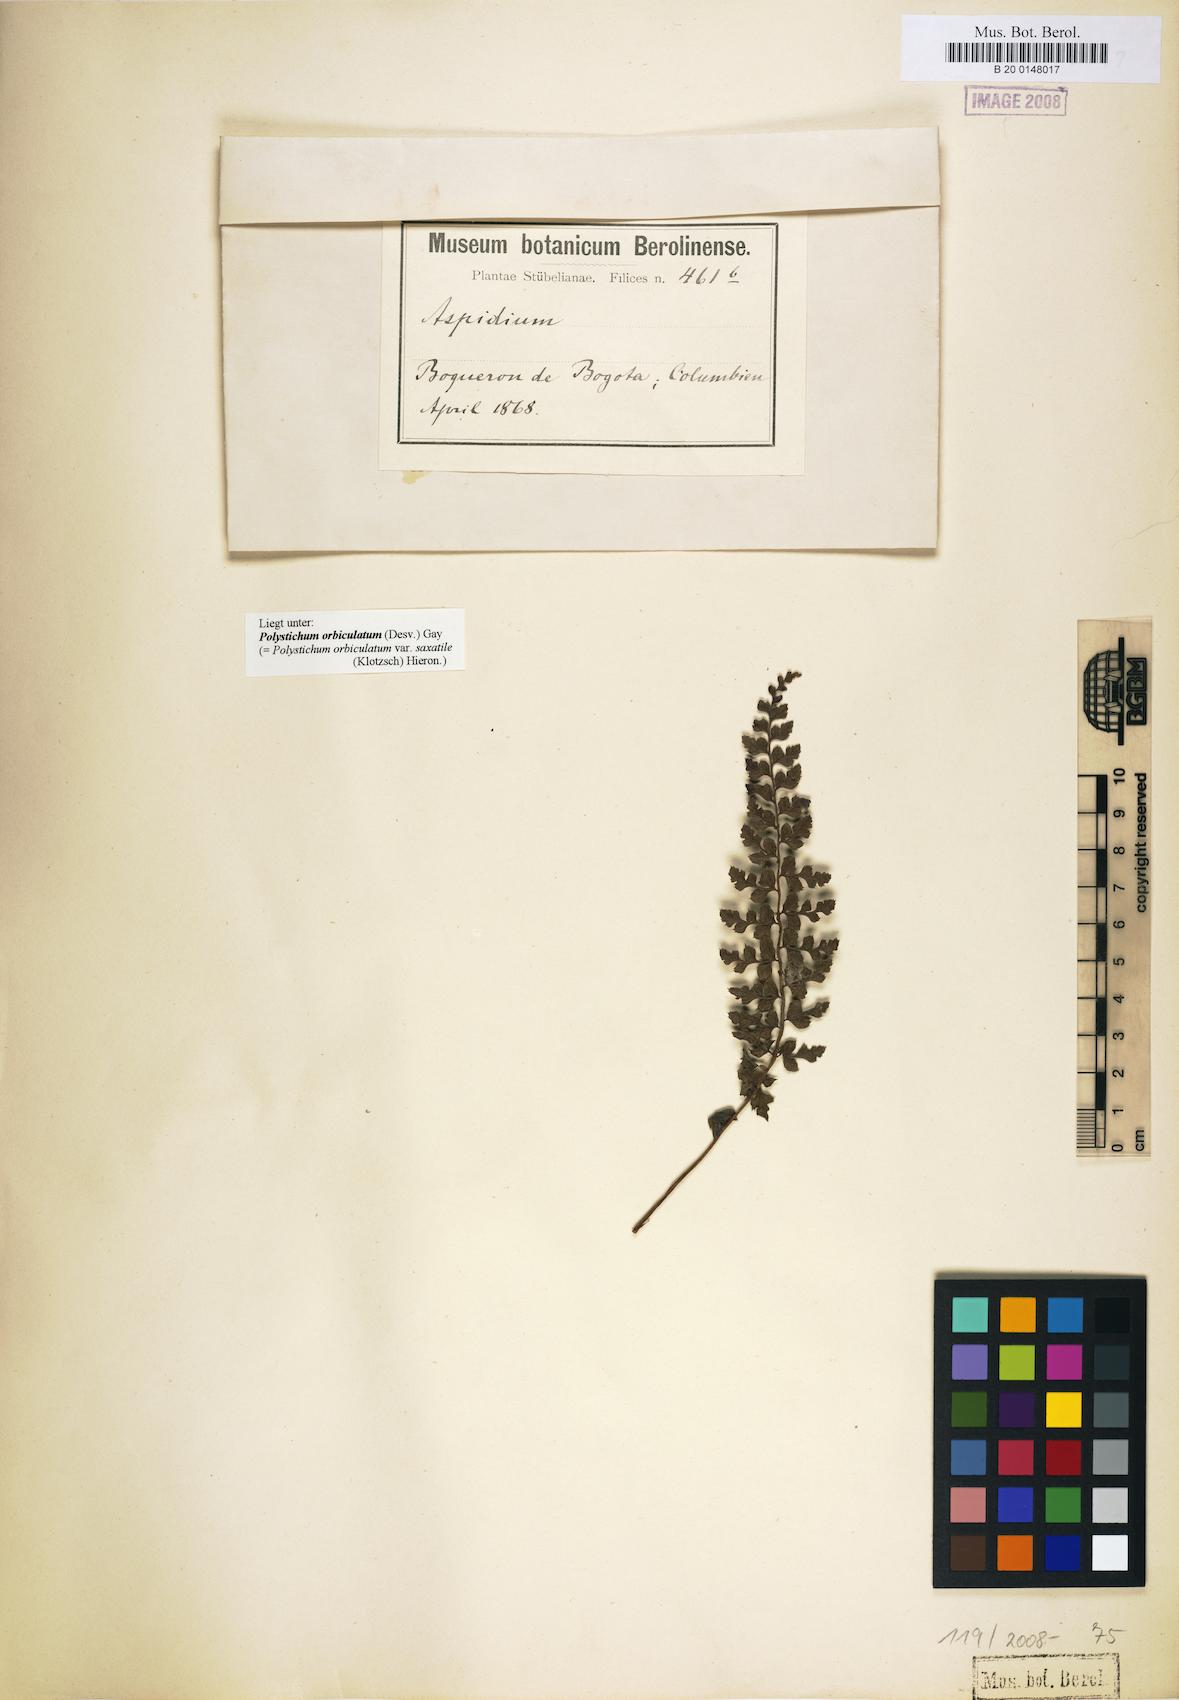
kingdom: Plantae
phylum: Tracheophyta
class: Polypodiopsida
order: Polypodiales
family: Dryopteridaceae
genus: Polystichum
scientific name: Polystichum orbiculatum
